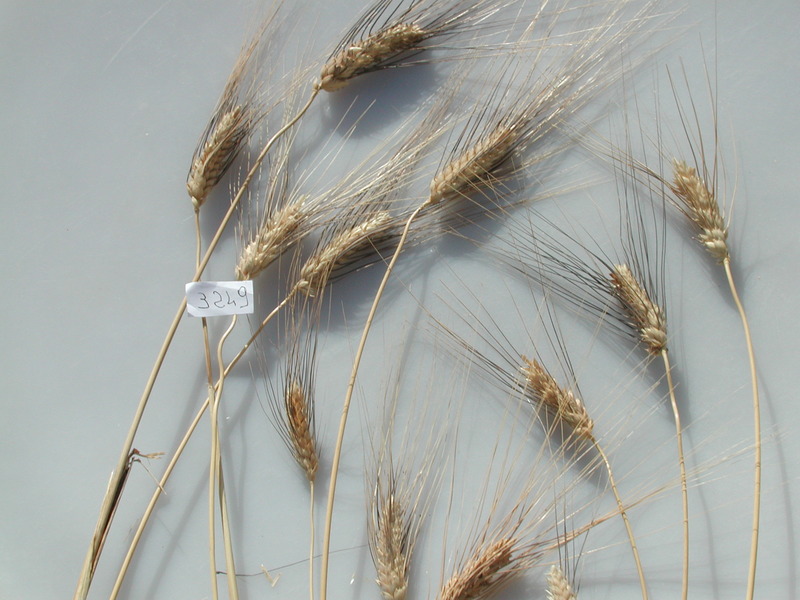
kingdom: Plantae
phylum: Tracheophyta
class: Liliopsida
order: Poales
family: Poaceae
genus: Triticum
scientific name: Triticum turgidum
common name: Wheat
